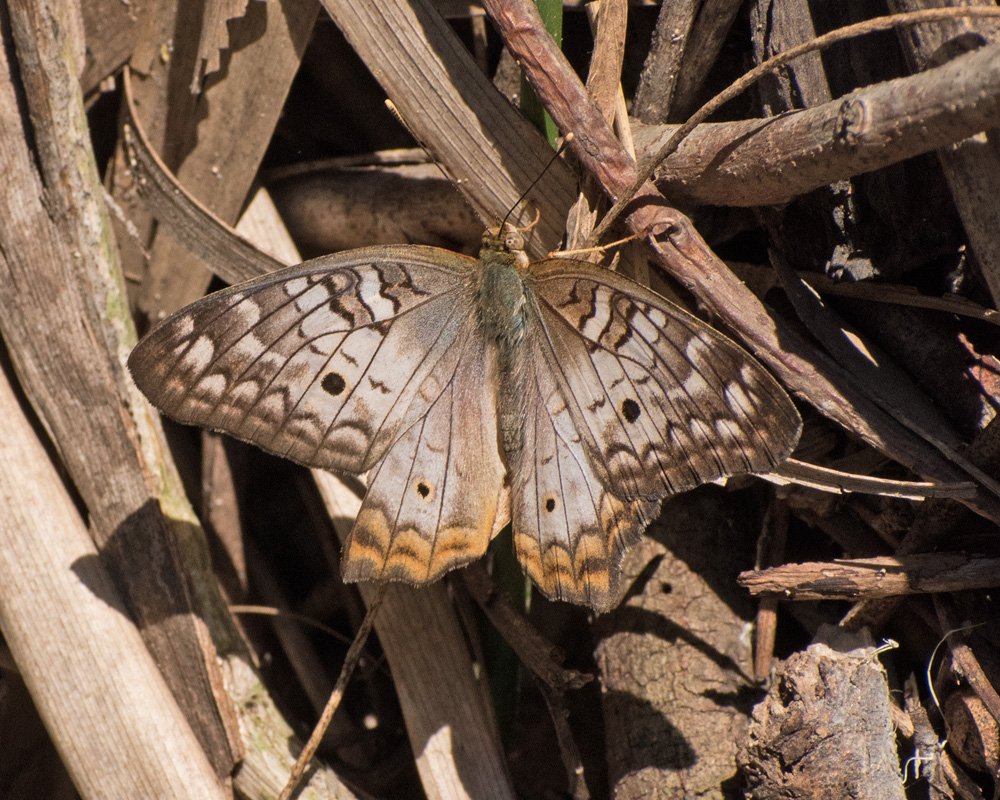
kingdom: Animalia
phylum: Arthropoda
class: Insecta
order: Lepidoptera
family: Nymphalidae
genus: Anartia
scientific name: Anartia jatrophae
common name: White Peacock
